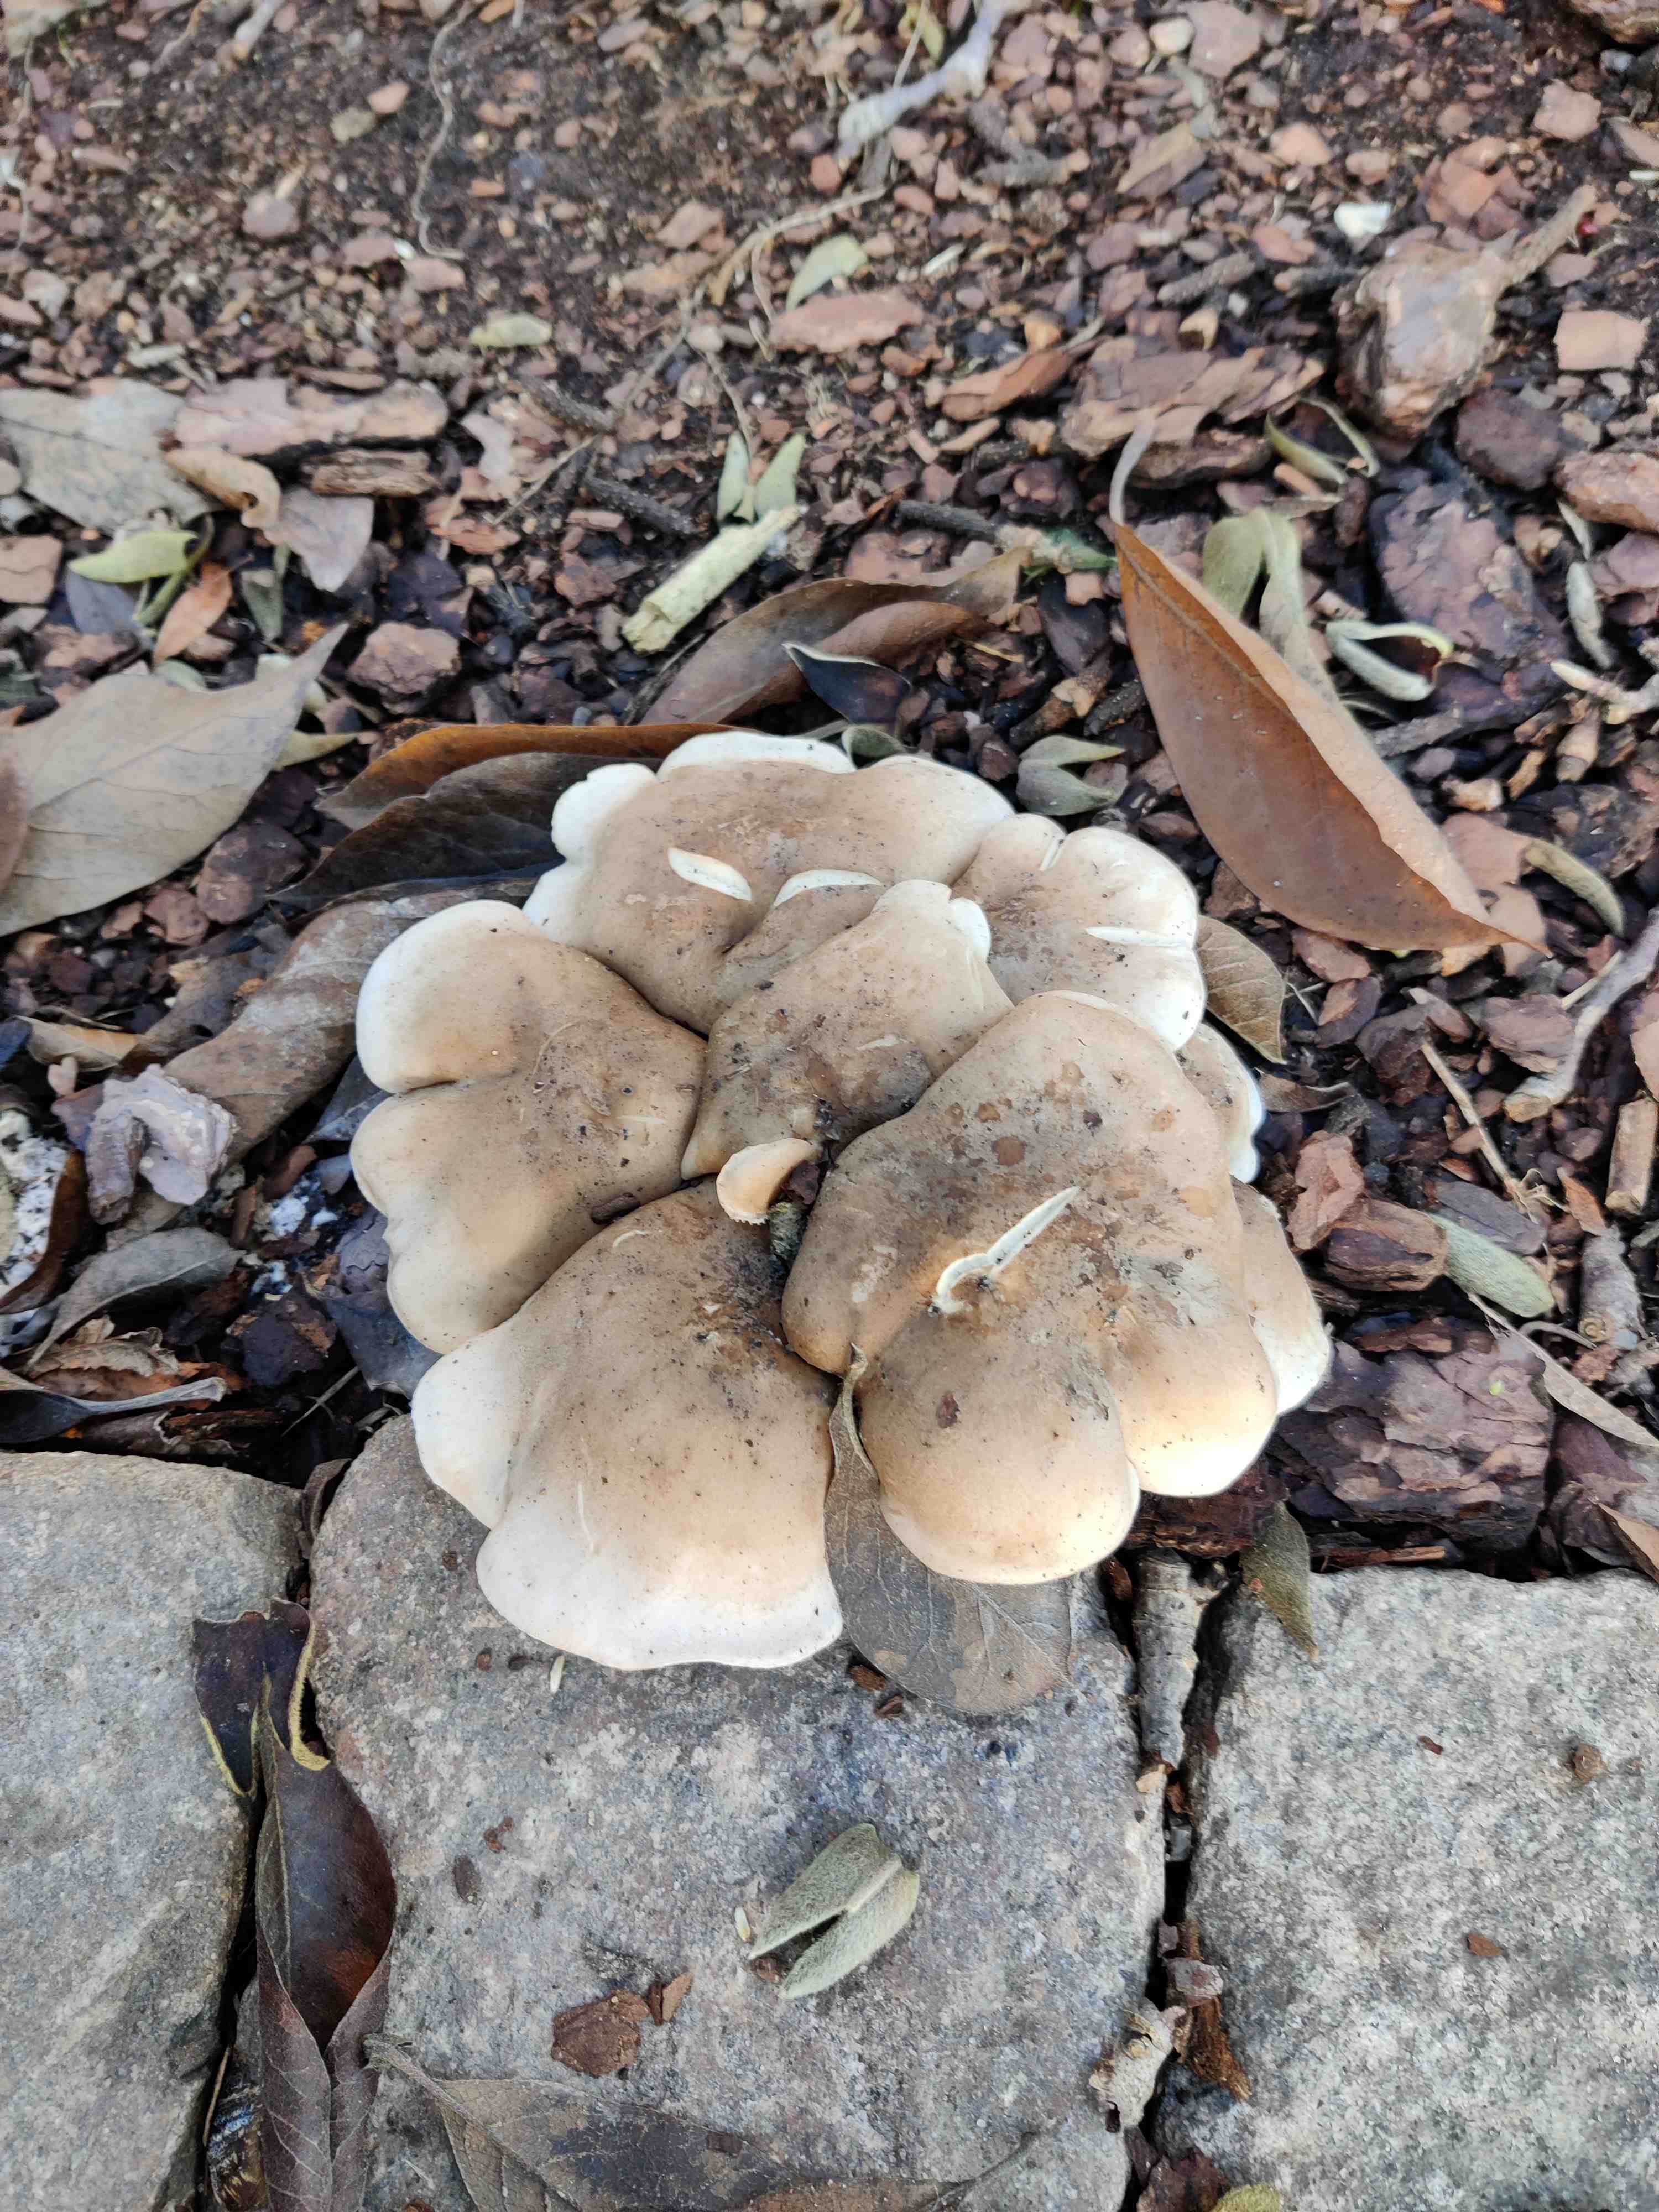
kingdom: Fungi
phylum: Basidiomycota
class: Agaricomycetes
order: Agaricales
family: Tricholomataceae
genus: Clitocybe
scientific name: Clitocybe nebularis
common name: tåge-tragthat
